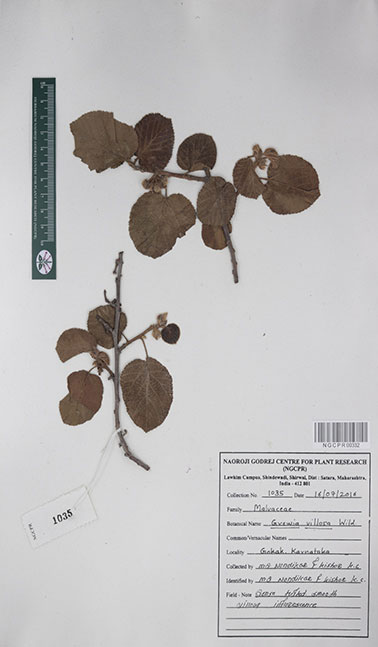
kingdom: Plantae
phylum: Tracheophyta
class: Magnoliopsida
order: Malvales
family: Malvaceae
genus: Grewia
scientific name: Grewia villosa
